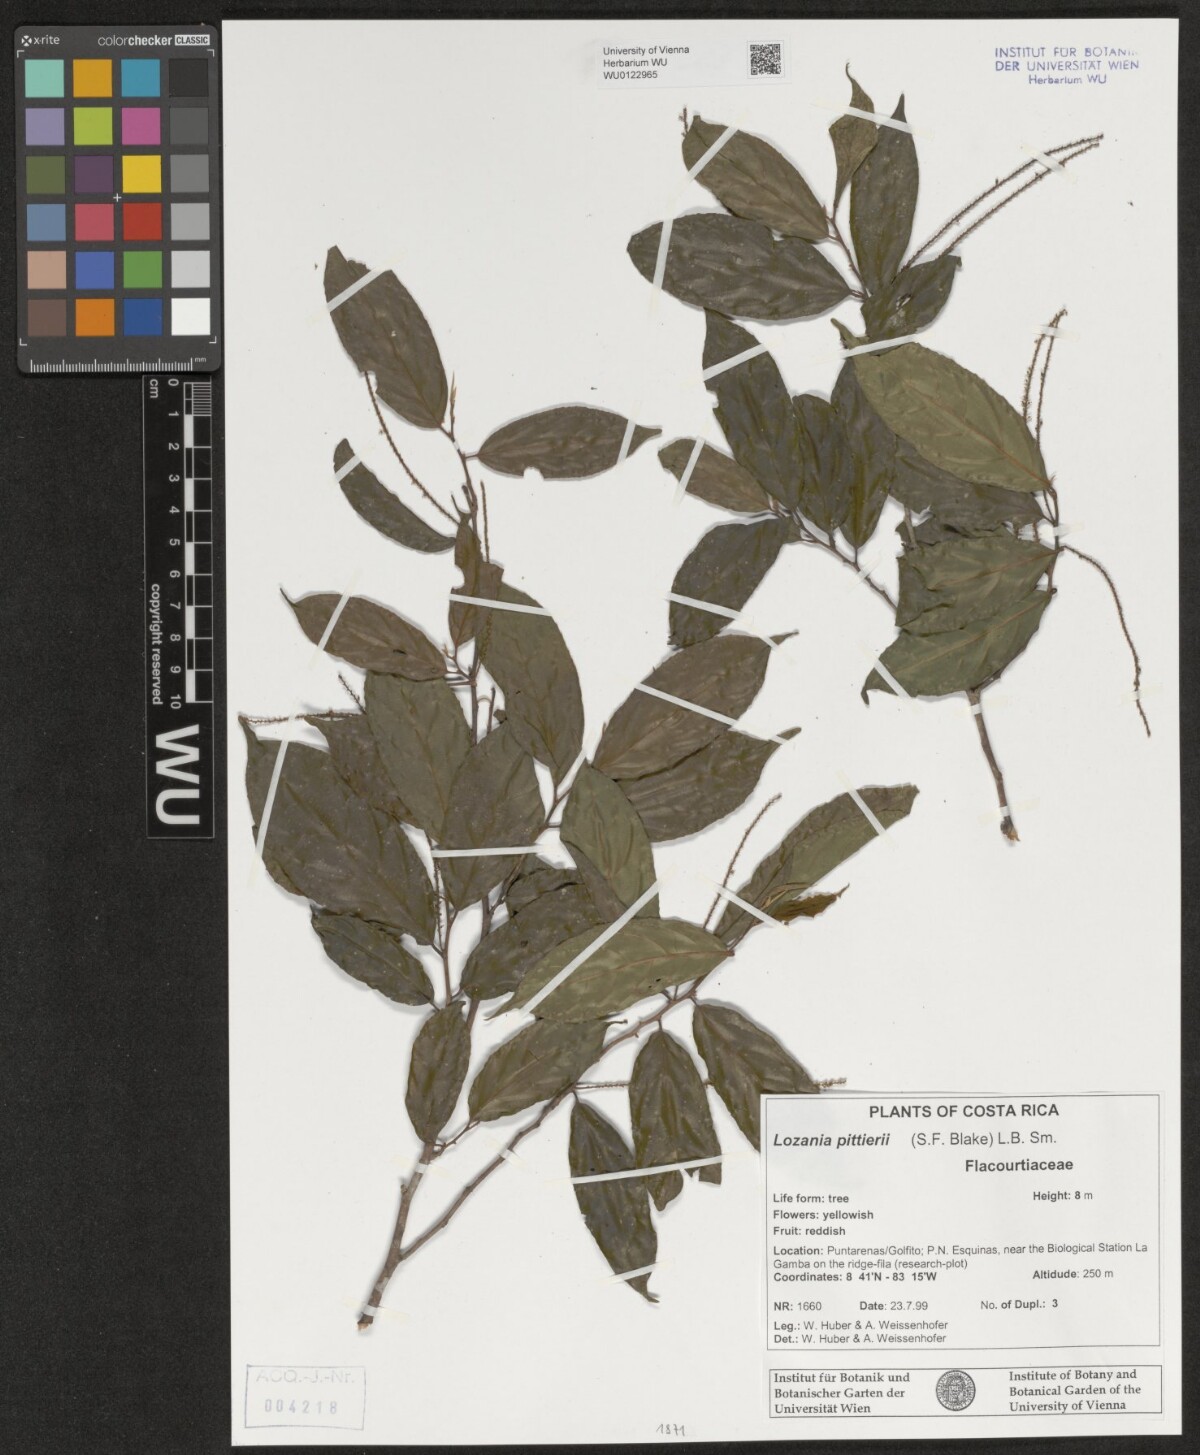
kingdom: Plantae
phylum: Tracheophyta
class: Magnoliopsida
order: Malpighiales
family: Lacistemataceae
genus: Lozania
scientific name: Lozania pittieri
